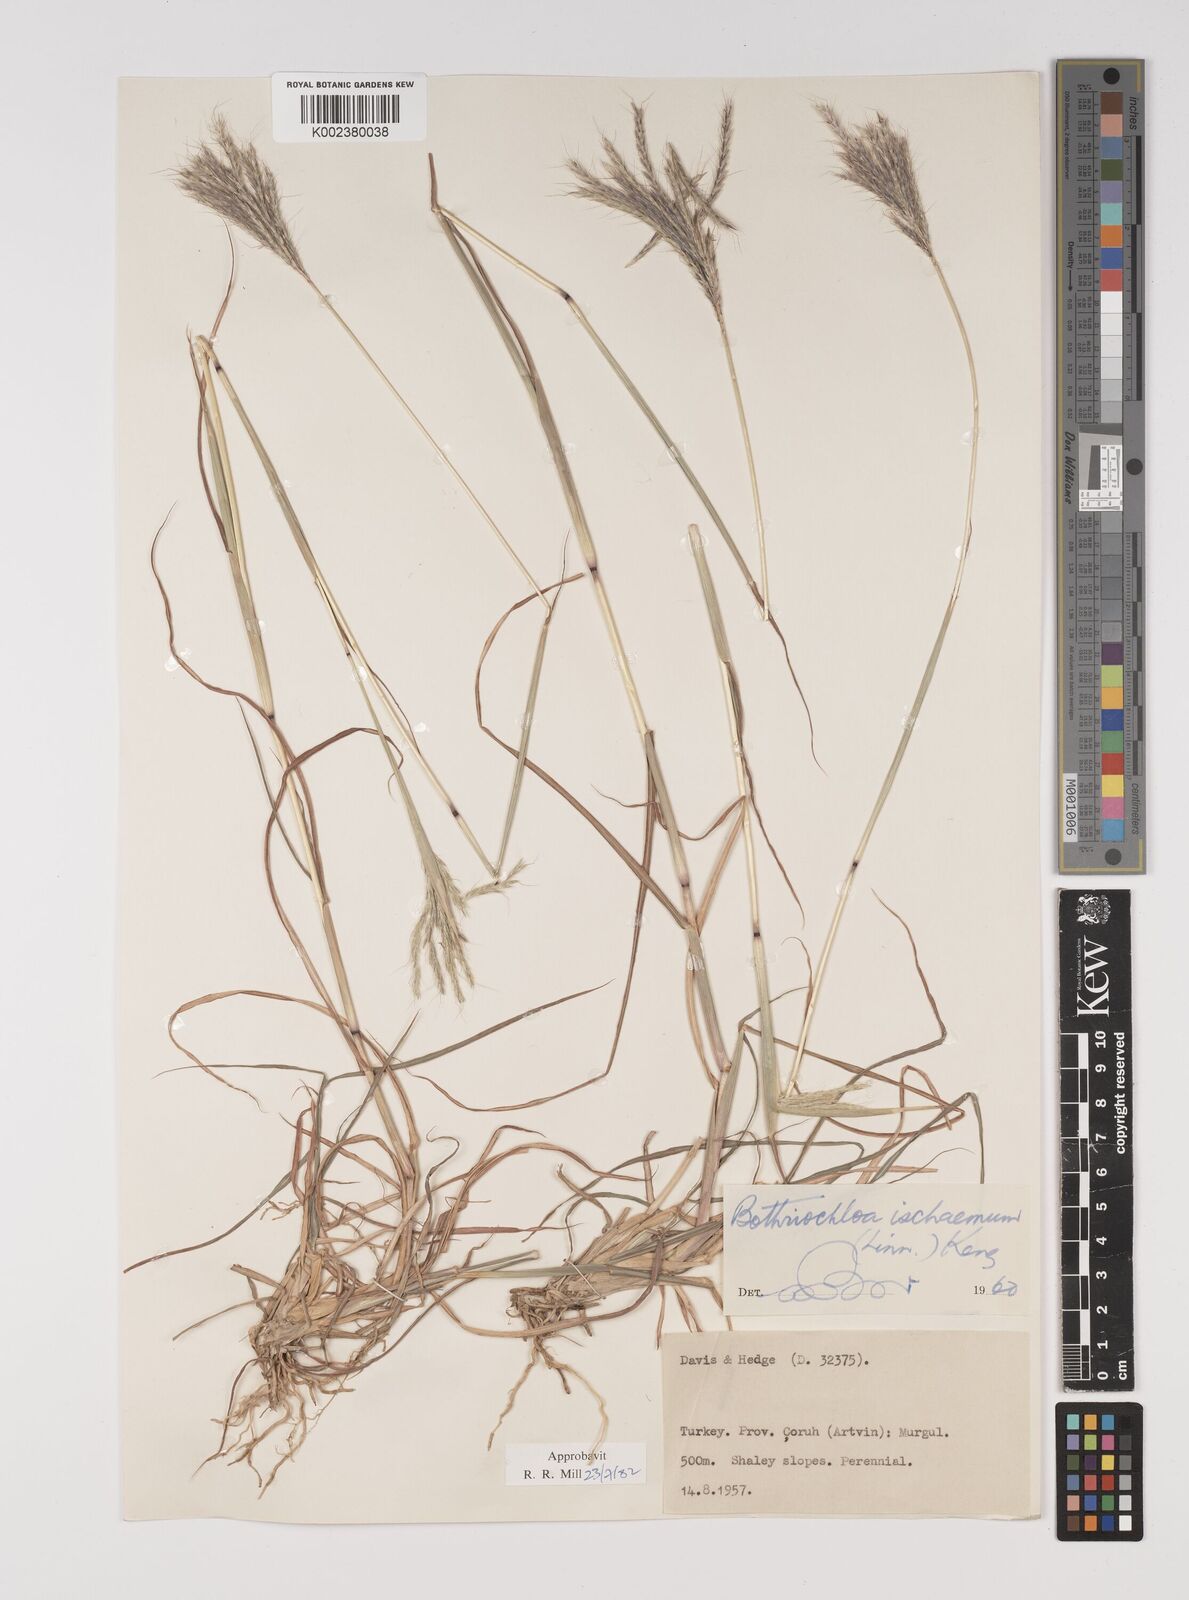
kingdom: Plantae
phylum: Tracheophyta
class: Liliopsida
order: Poales
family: Poaceae
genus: Bothriochloa
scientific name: Bothriochloa ischaemum
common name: Yellow bluestem
